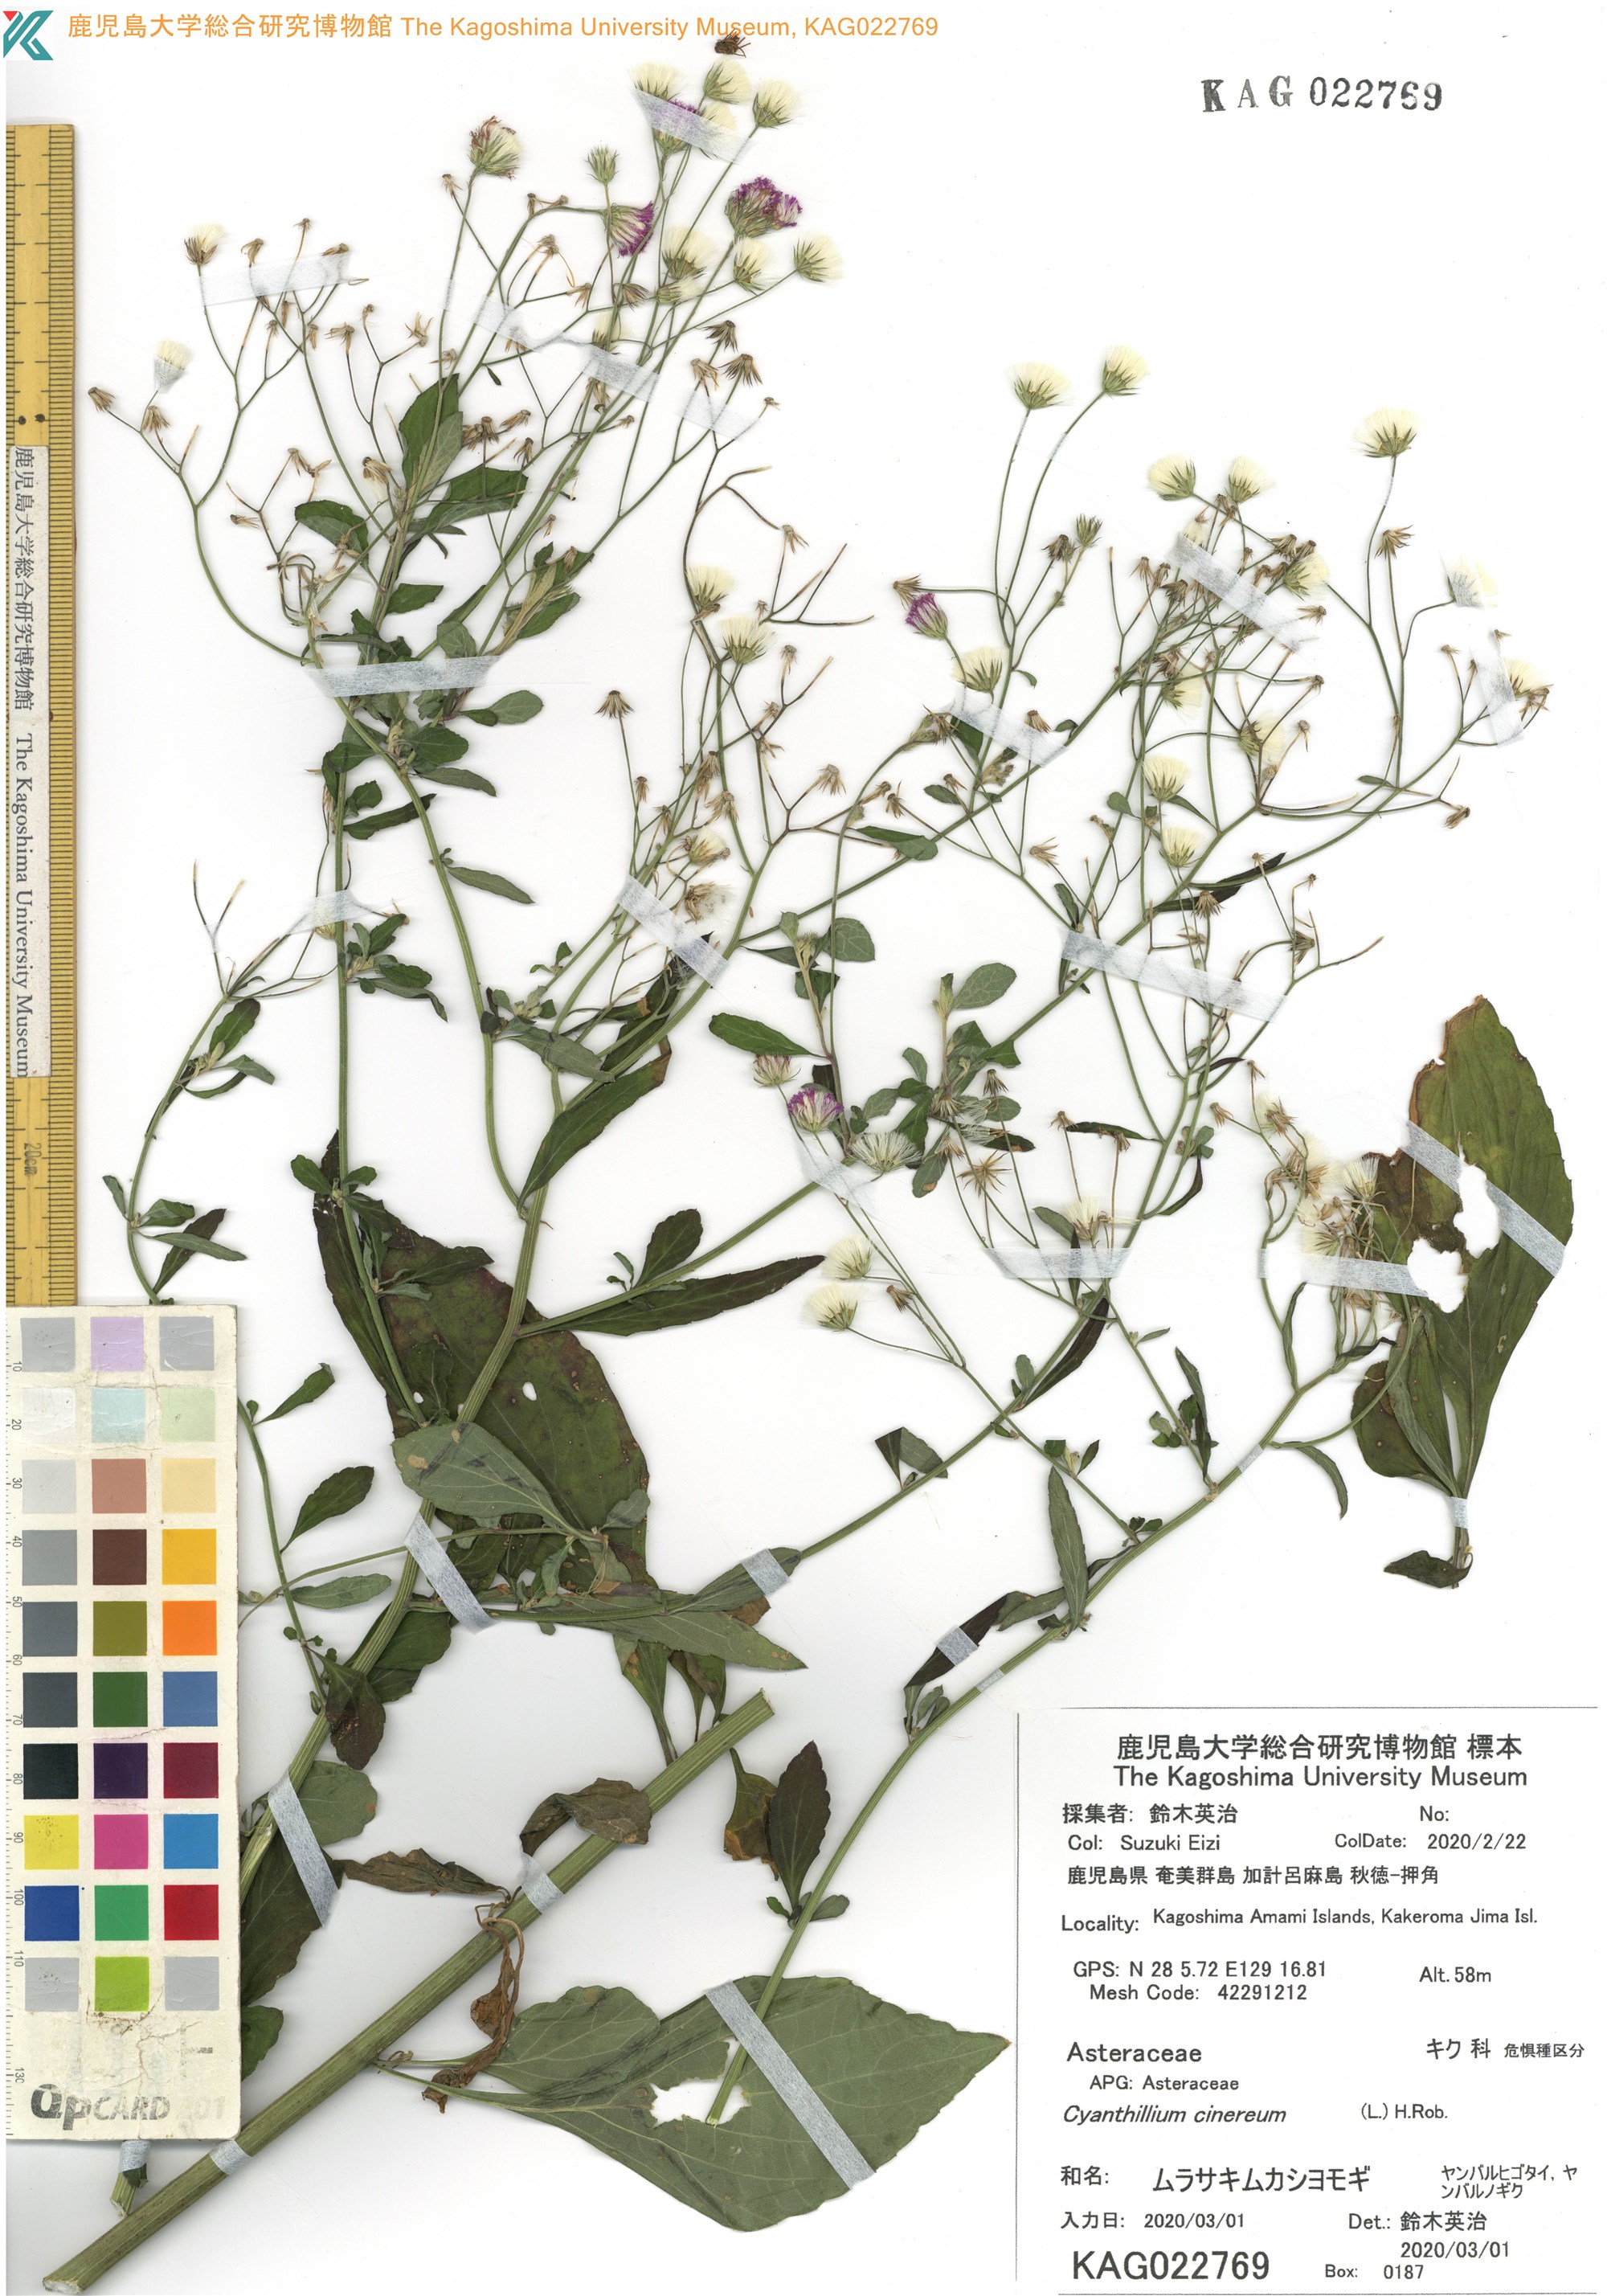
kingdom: Plantae
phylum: Tracheophyta
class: Magnoliopsida
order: Asterales
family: Asteraceae
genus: Cyanthillium
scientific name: Cyanthillium cinereum
